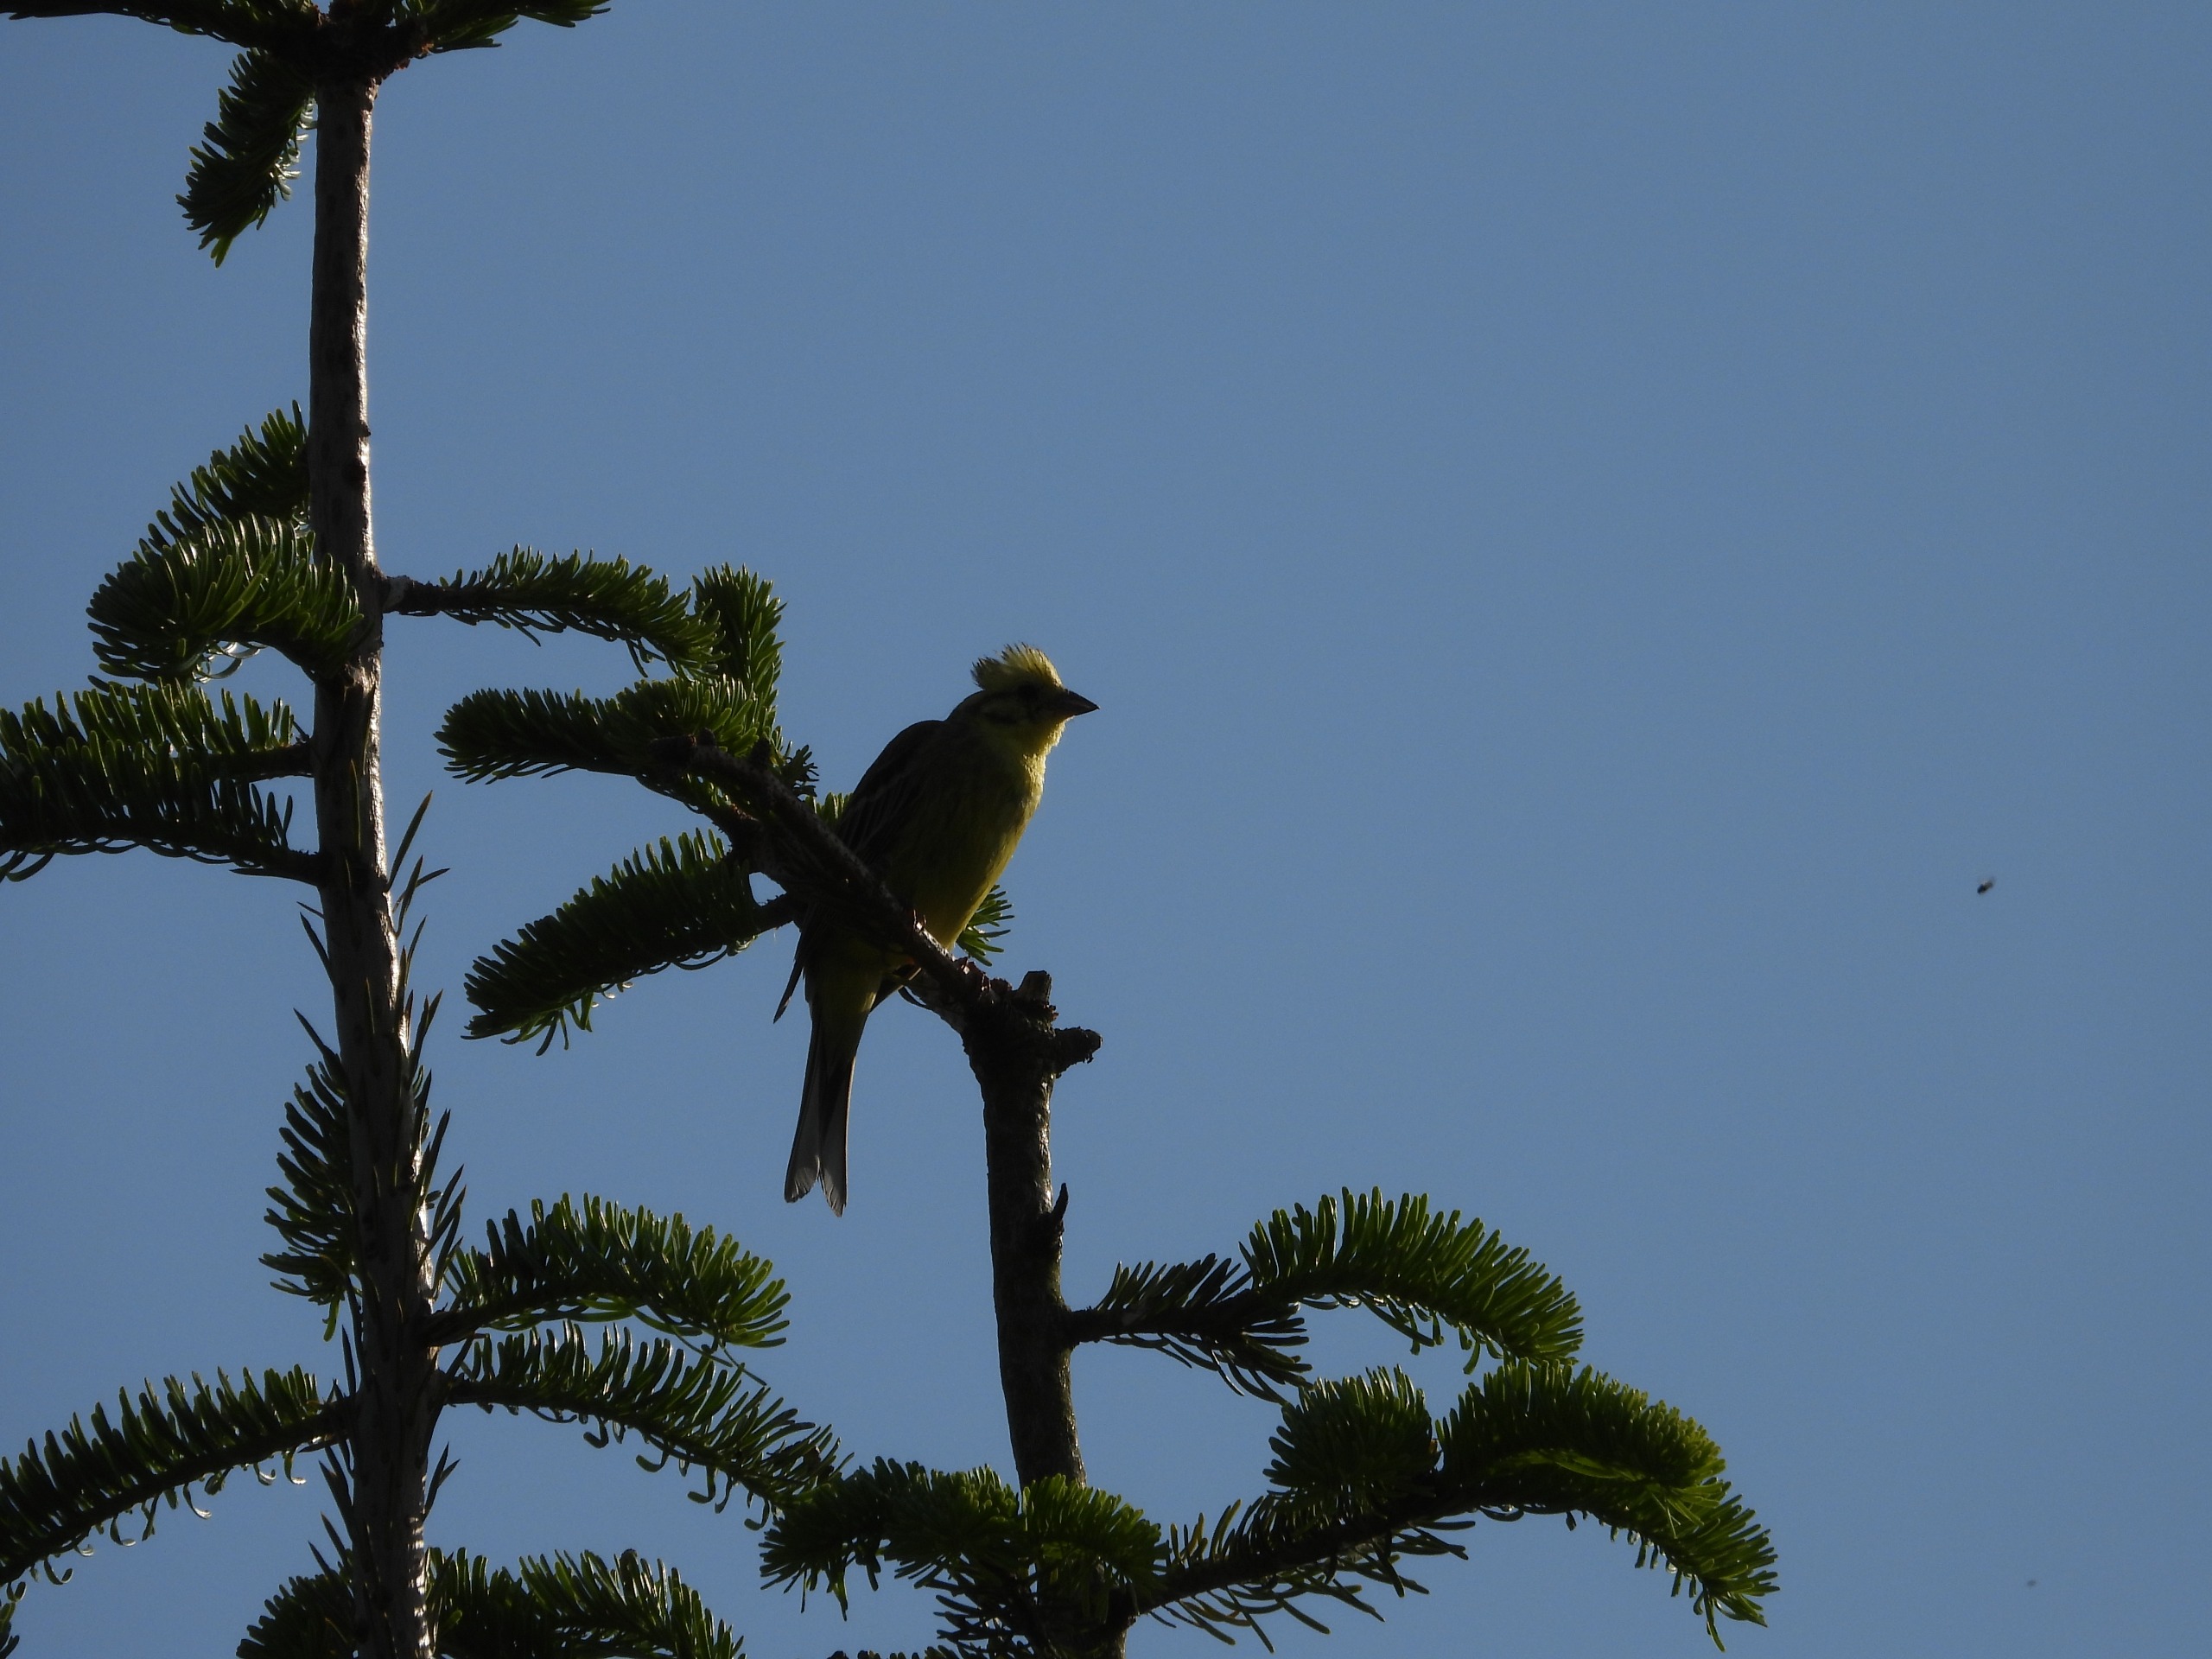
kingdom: Animalia
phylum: Chordata
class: Aves
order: Passeriformes
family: Emberizidae
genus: Emberiza
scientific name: Emberiza citrinella
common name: Gulspurv
